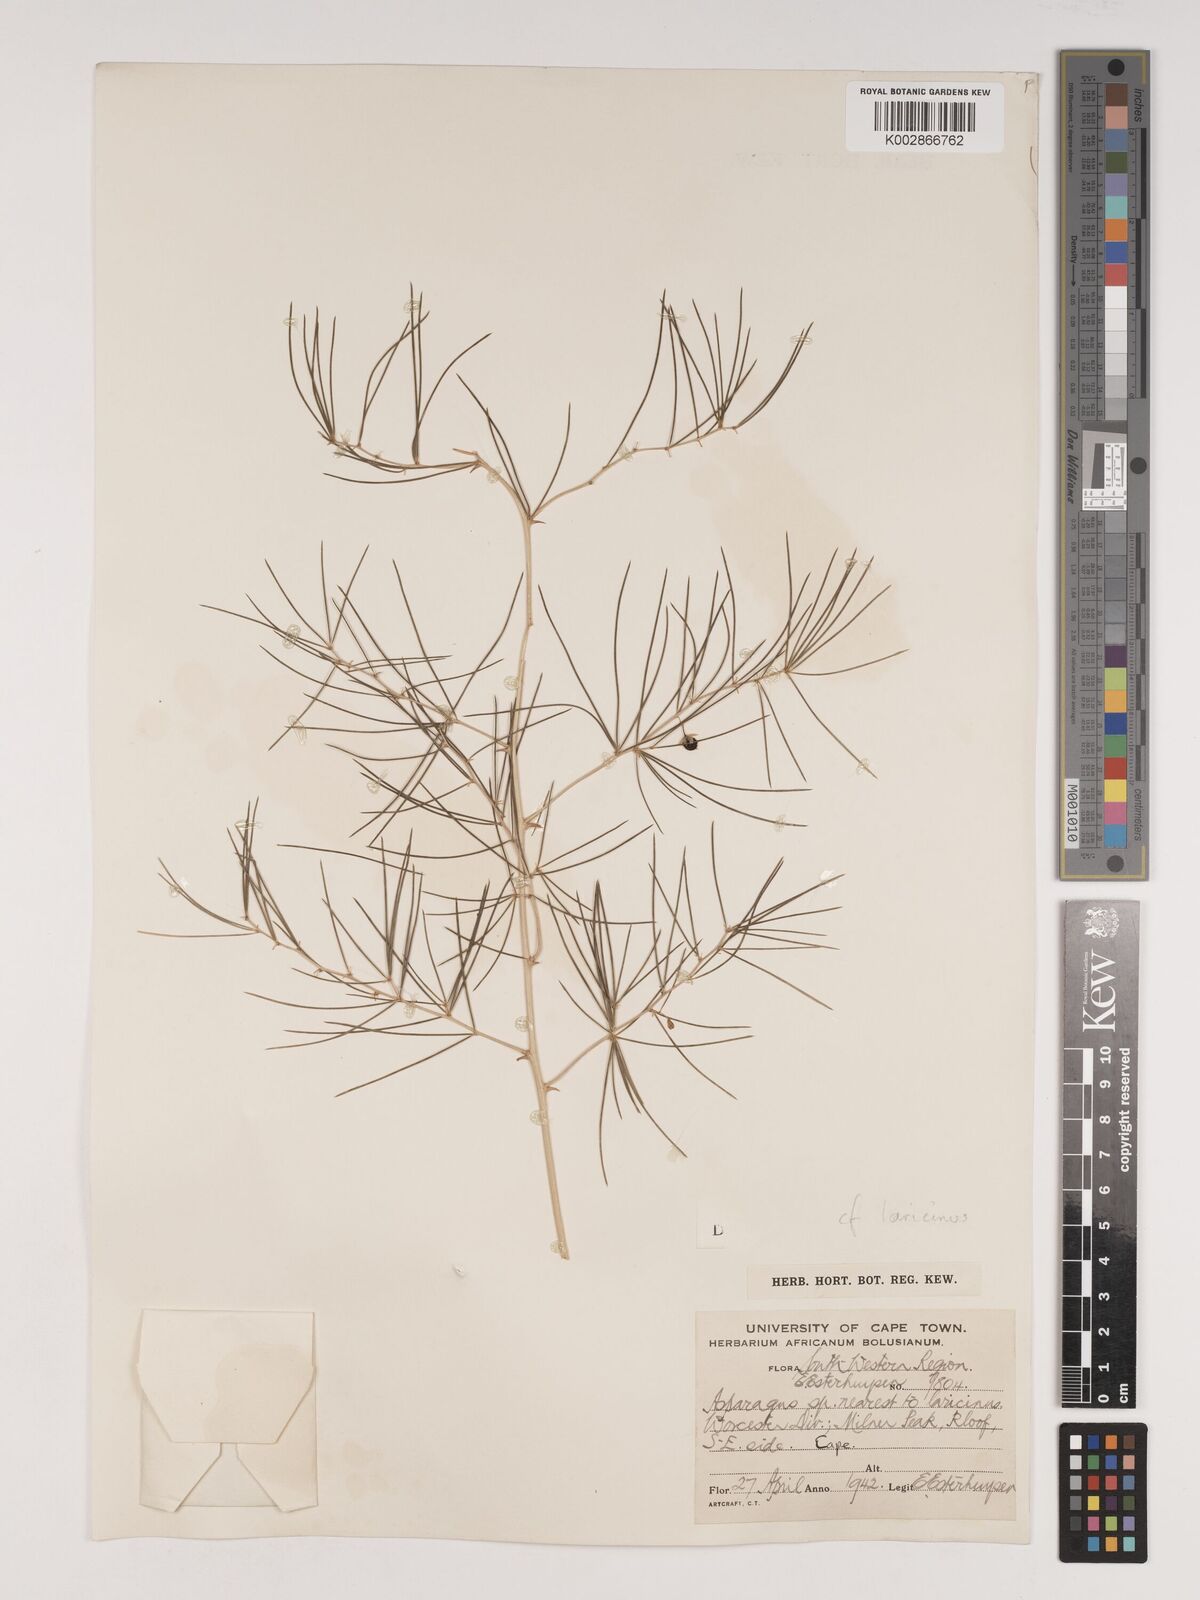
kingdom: Plantae
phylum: Tracheophyta
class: Liliopsida
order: Asparagales
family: Asparagaceae
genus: Asparagus
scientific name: Asparagus laricinus
